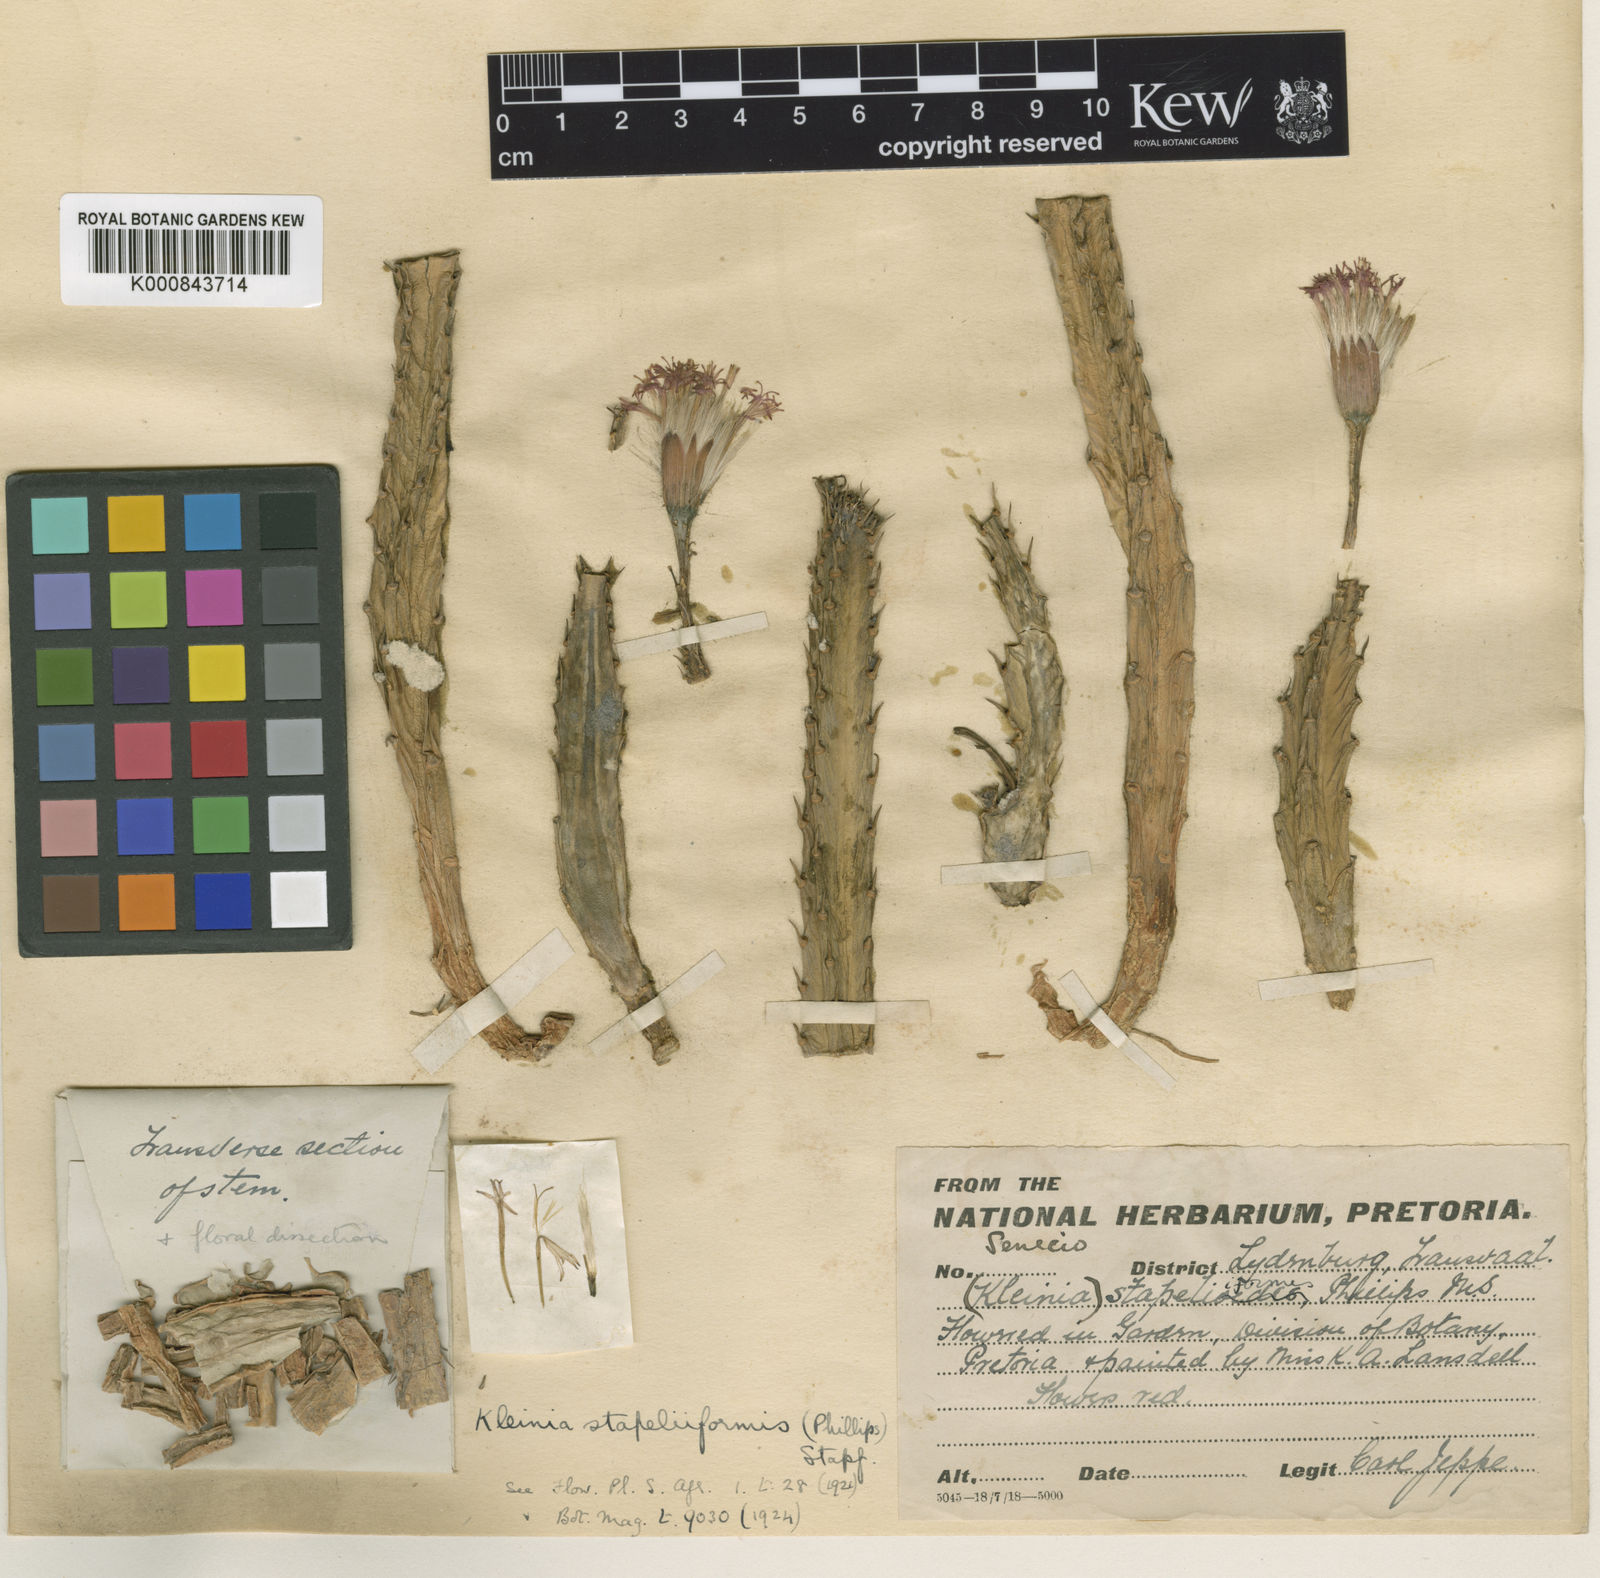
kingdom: Plantae
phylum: Tracheophyta
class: Magnoliopsida
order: Asterales
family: Asteraceae
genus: Kleinia
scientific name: Kleinia stapeliiformis
